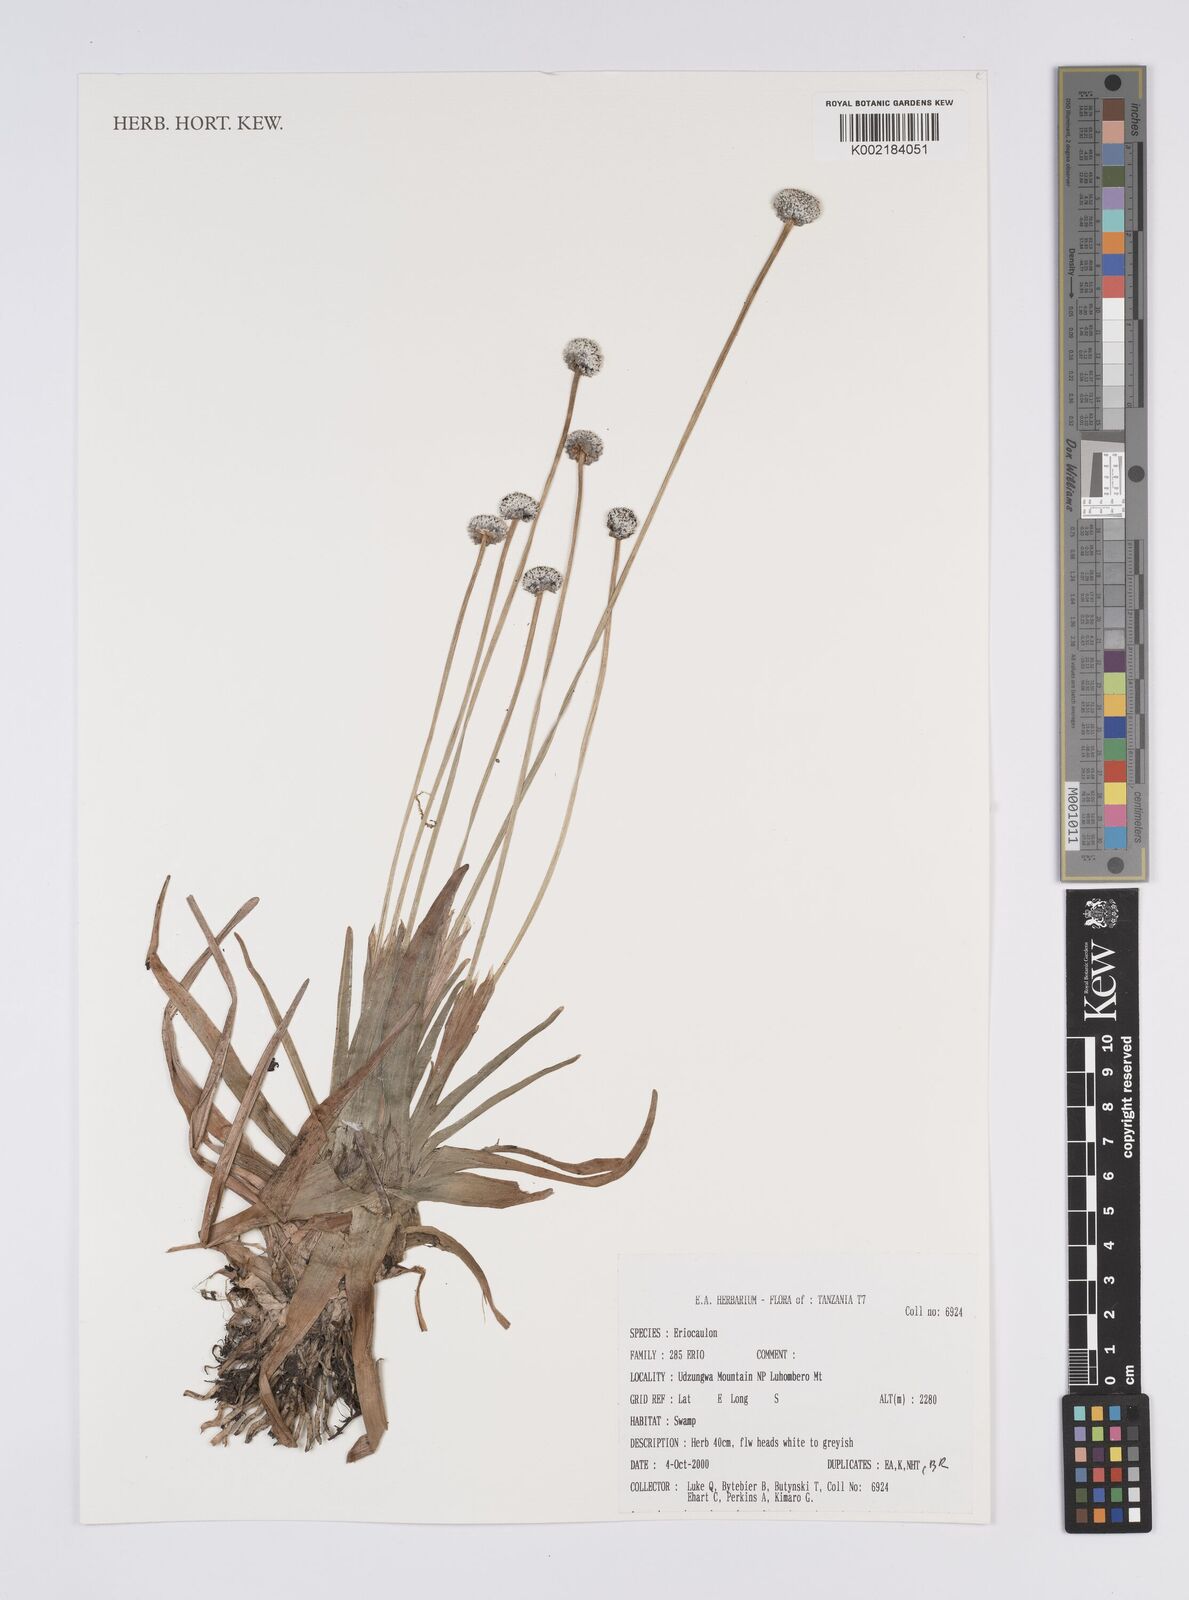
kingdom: Plantae
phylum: Tracheophyta
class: Liliopsida
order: Poales
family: Eriocaulaceae
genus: Eriocaulon
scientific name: Eriocaulon
